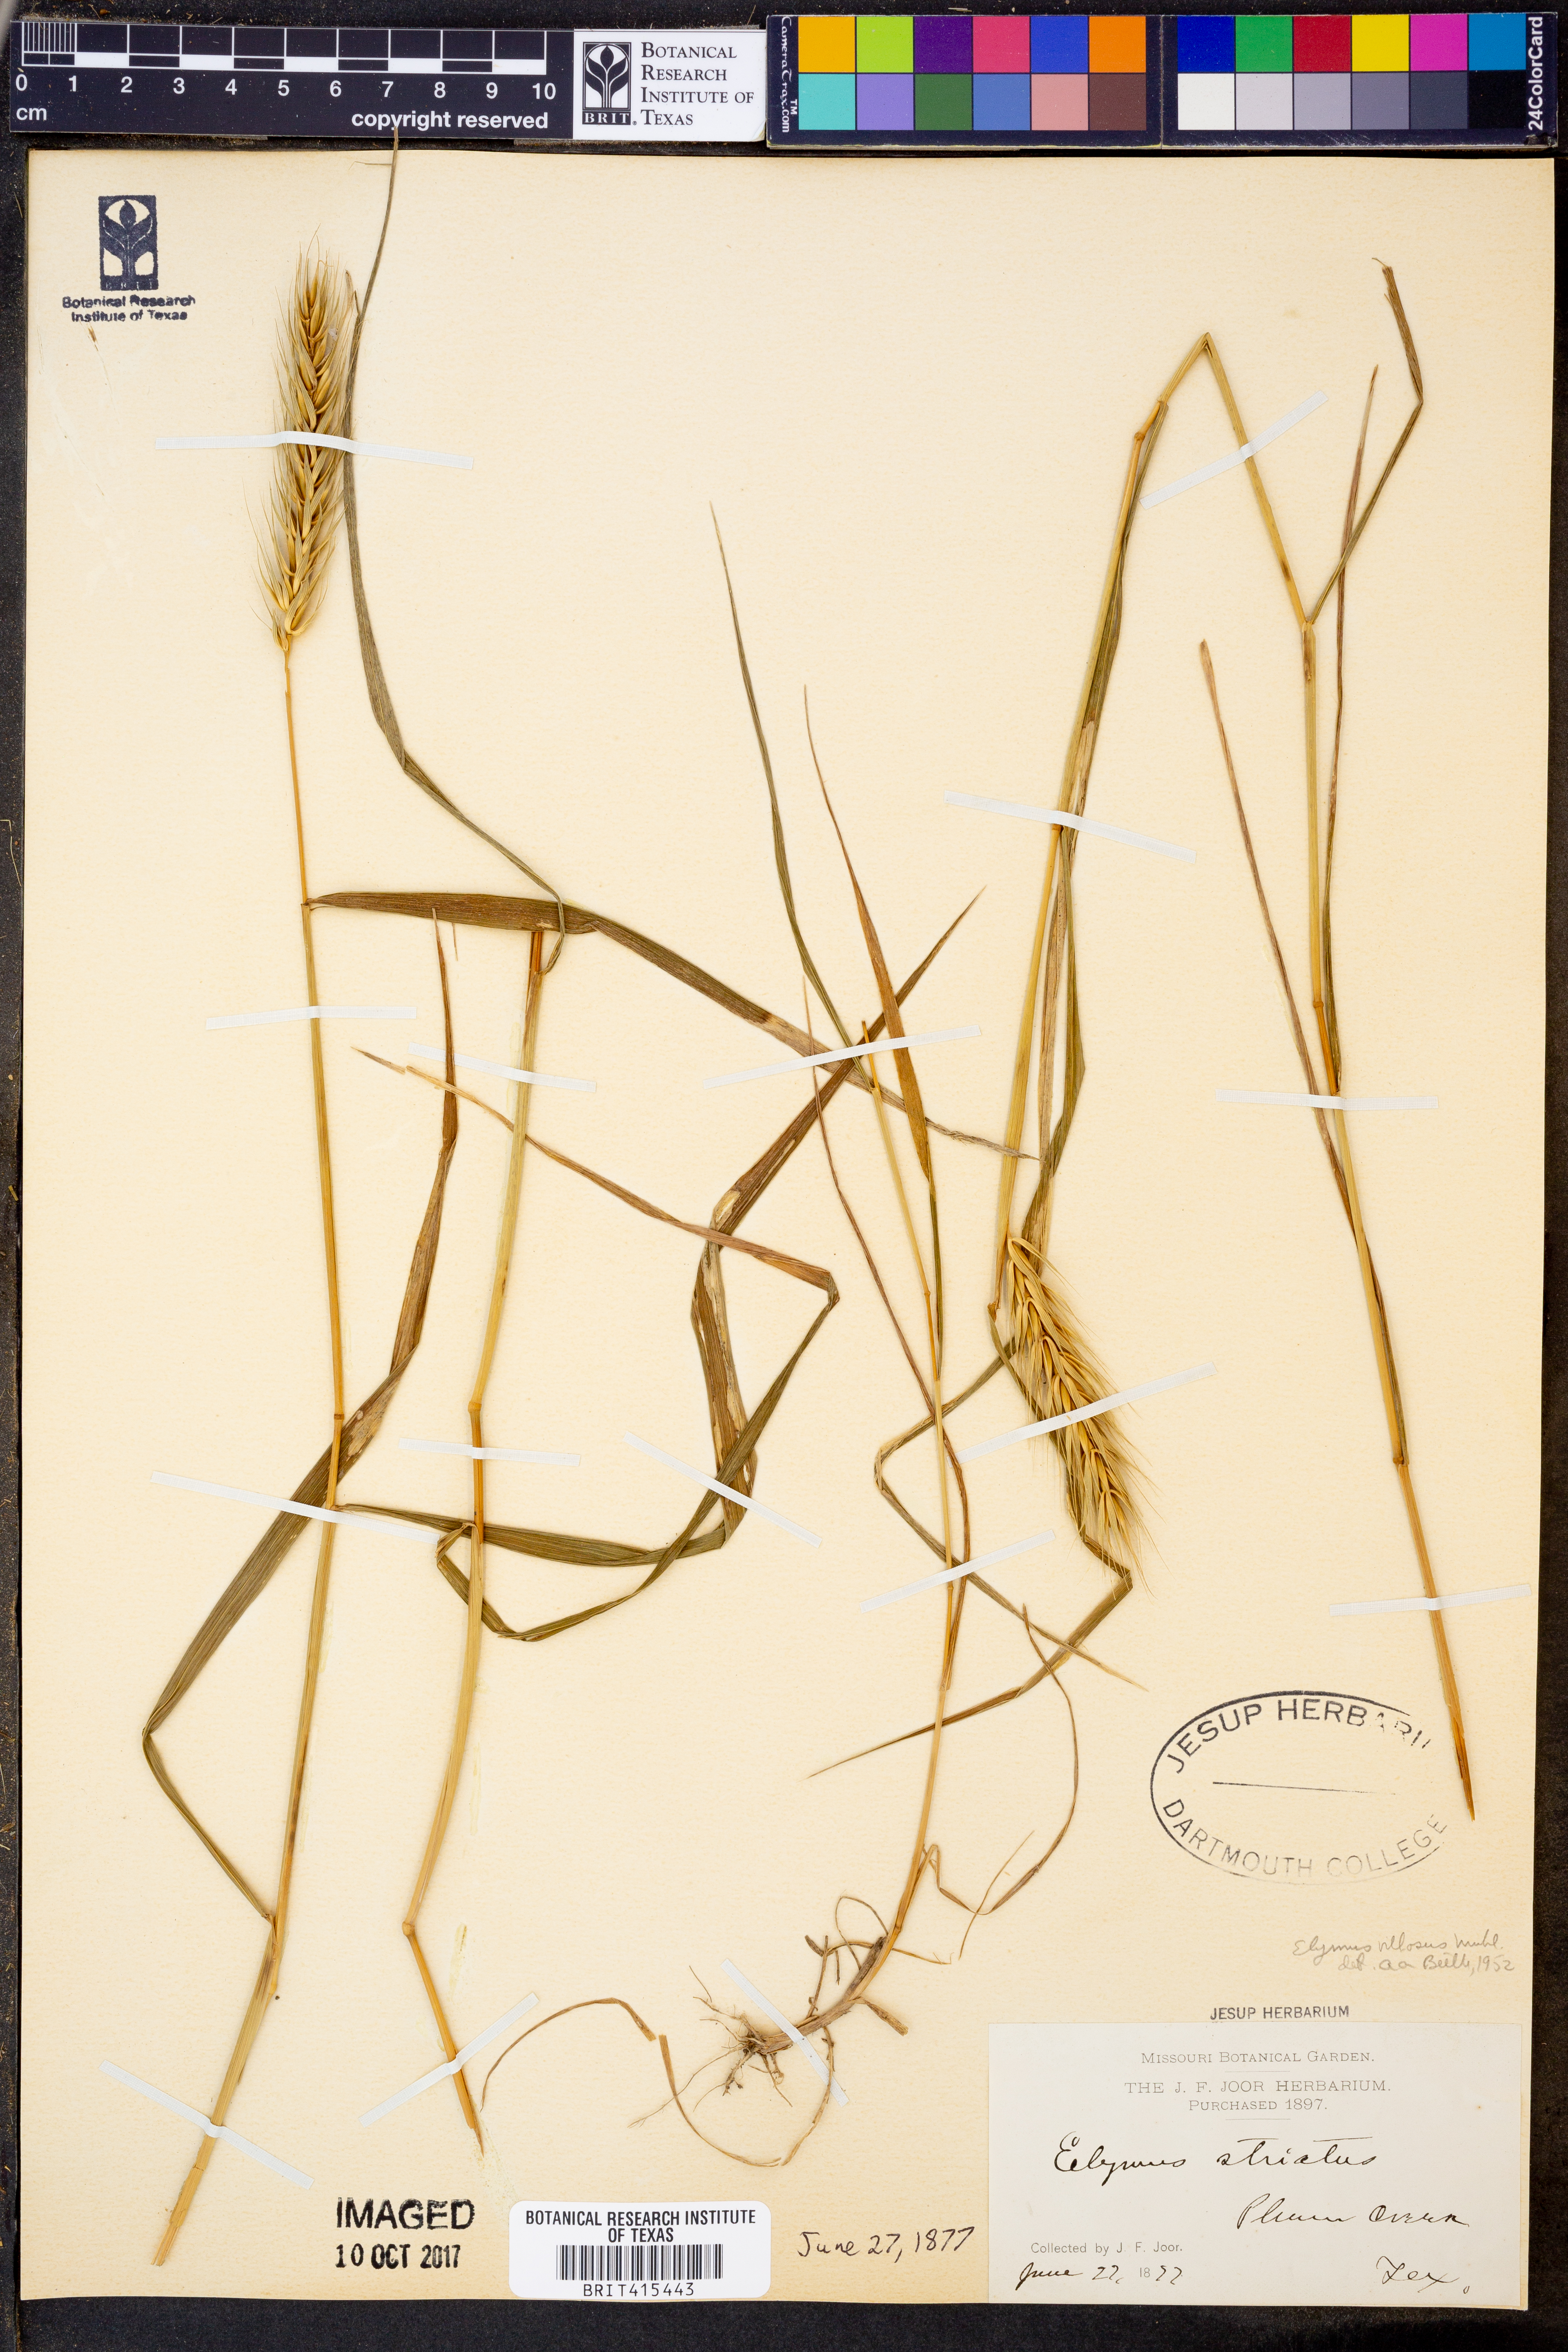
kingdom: Plantae
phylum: Tracheophyta
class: Liliopsida
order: Poales
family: Poaceae
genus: Elymus
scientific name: Elymus villosus
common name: Downy wild rye
